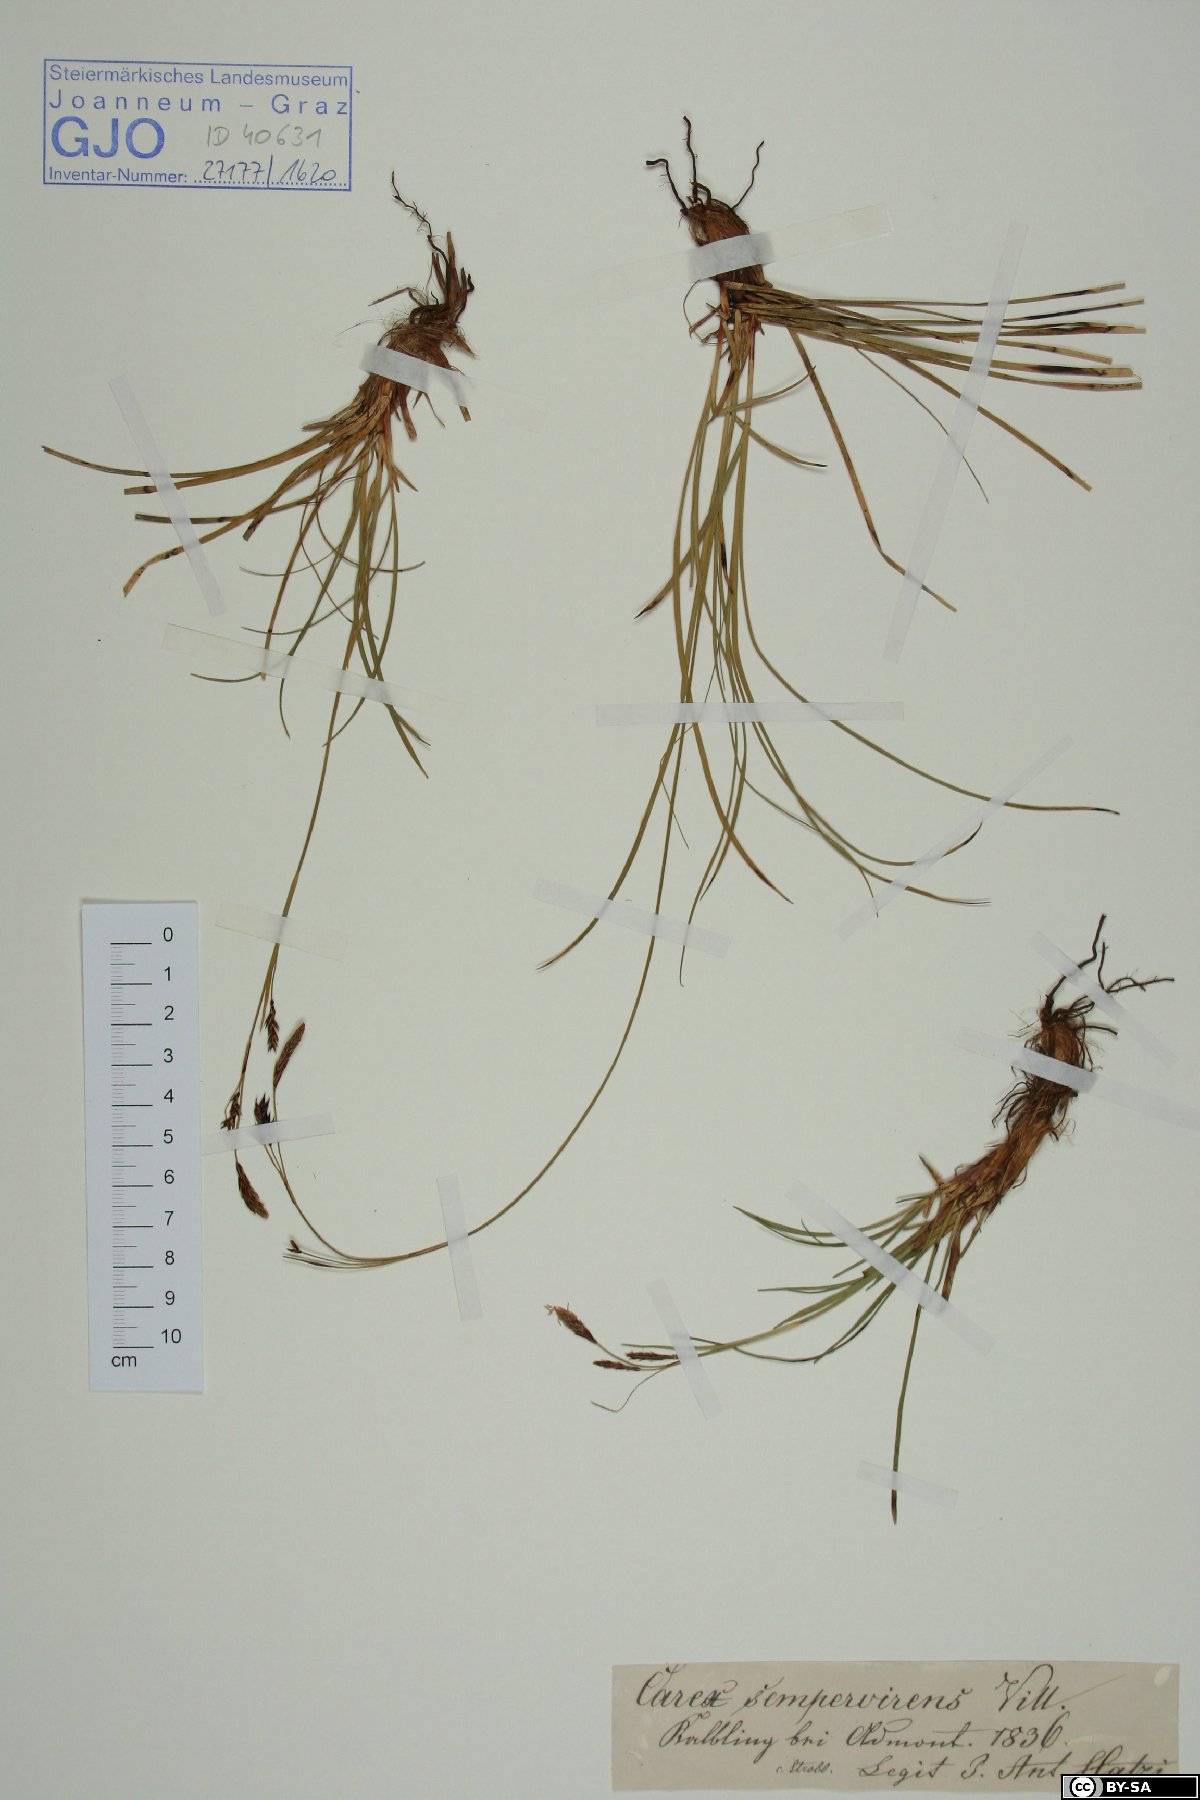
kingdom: Plantae
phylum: Tracheophyta
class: Liliopsida
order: Poales
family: Cyperaceae
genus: Carex
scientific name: Carex sempervirens
